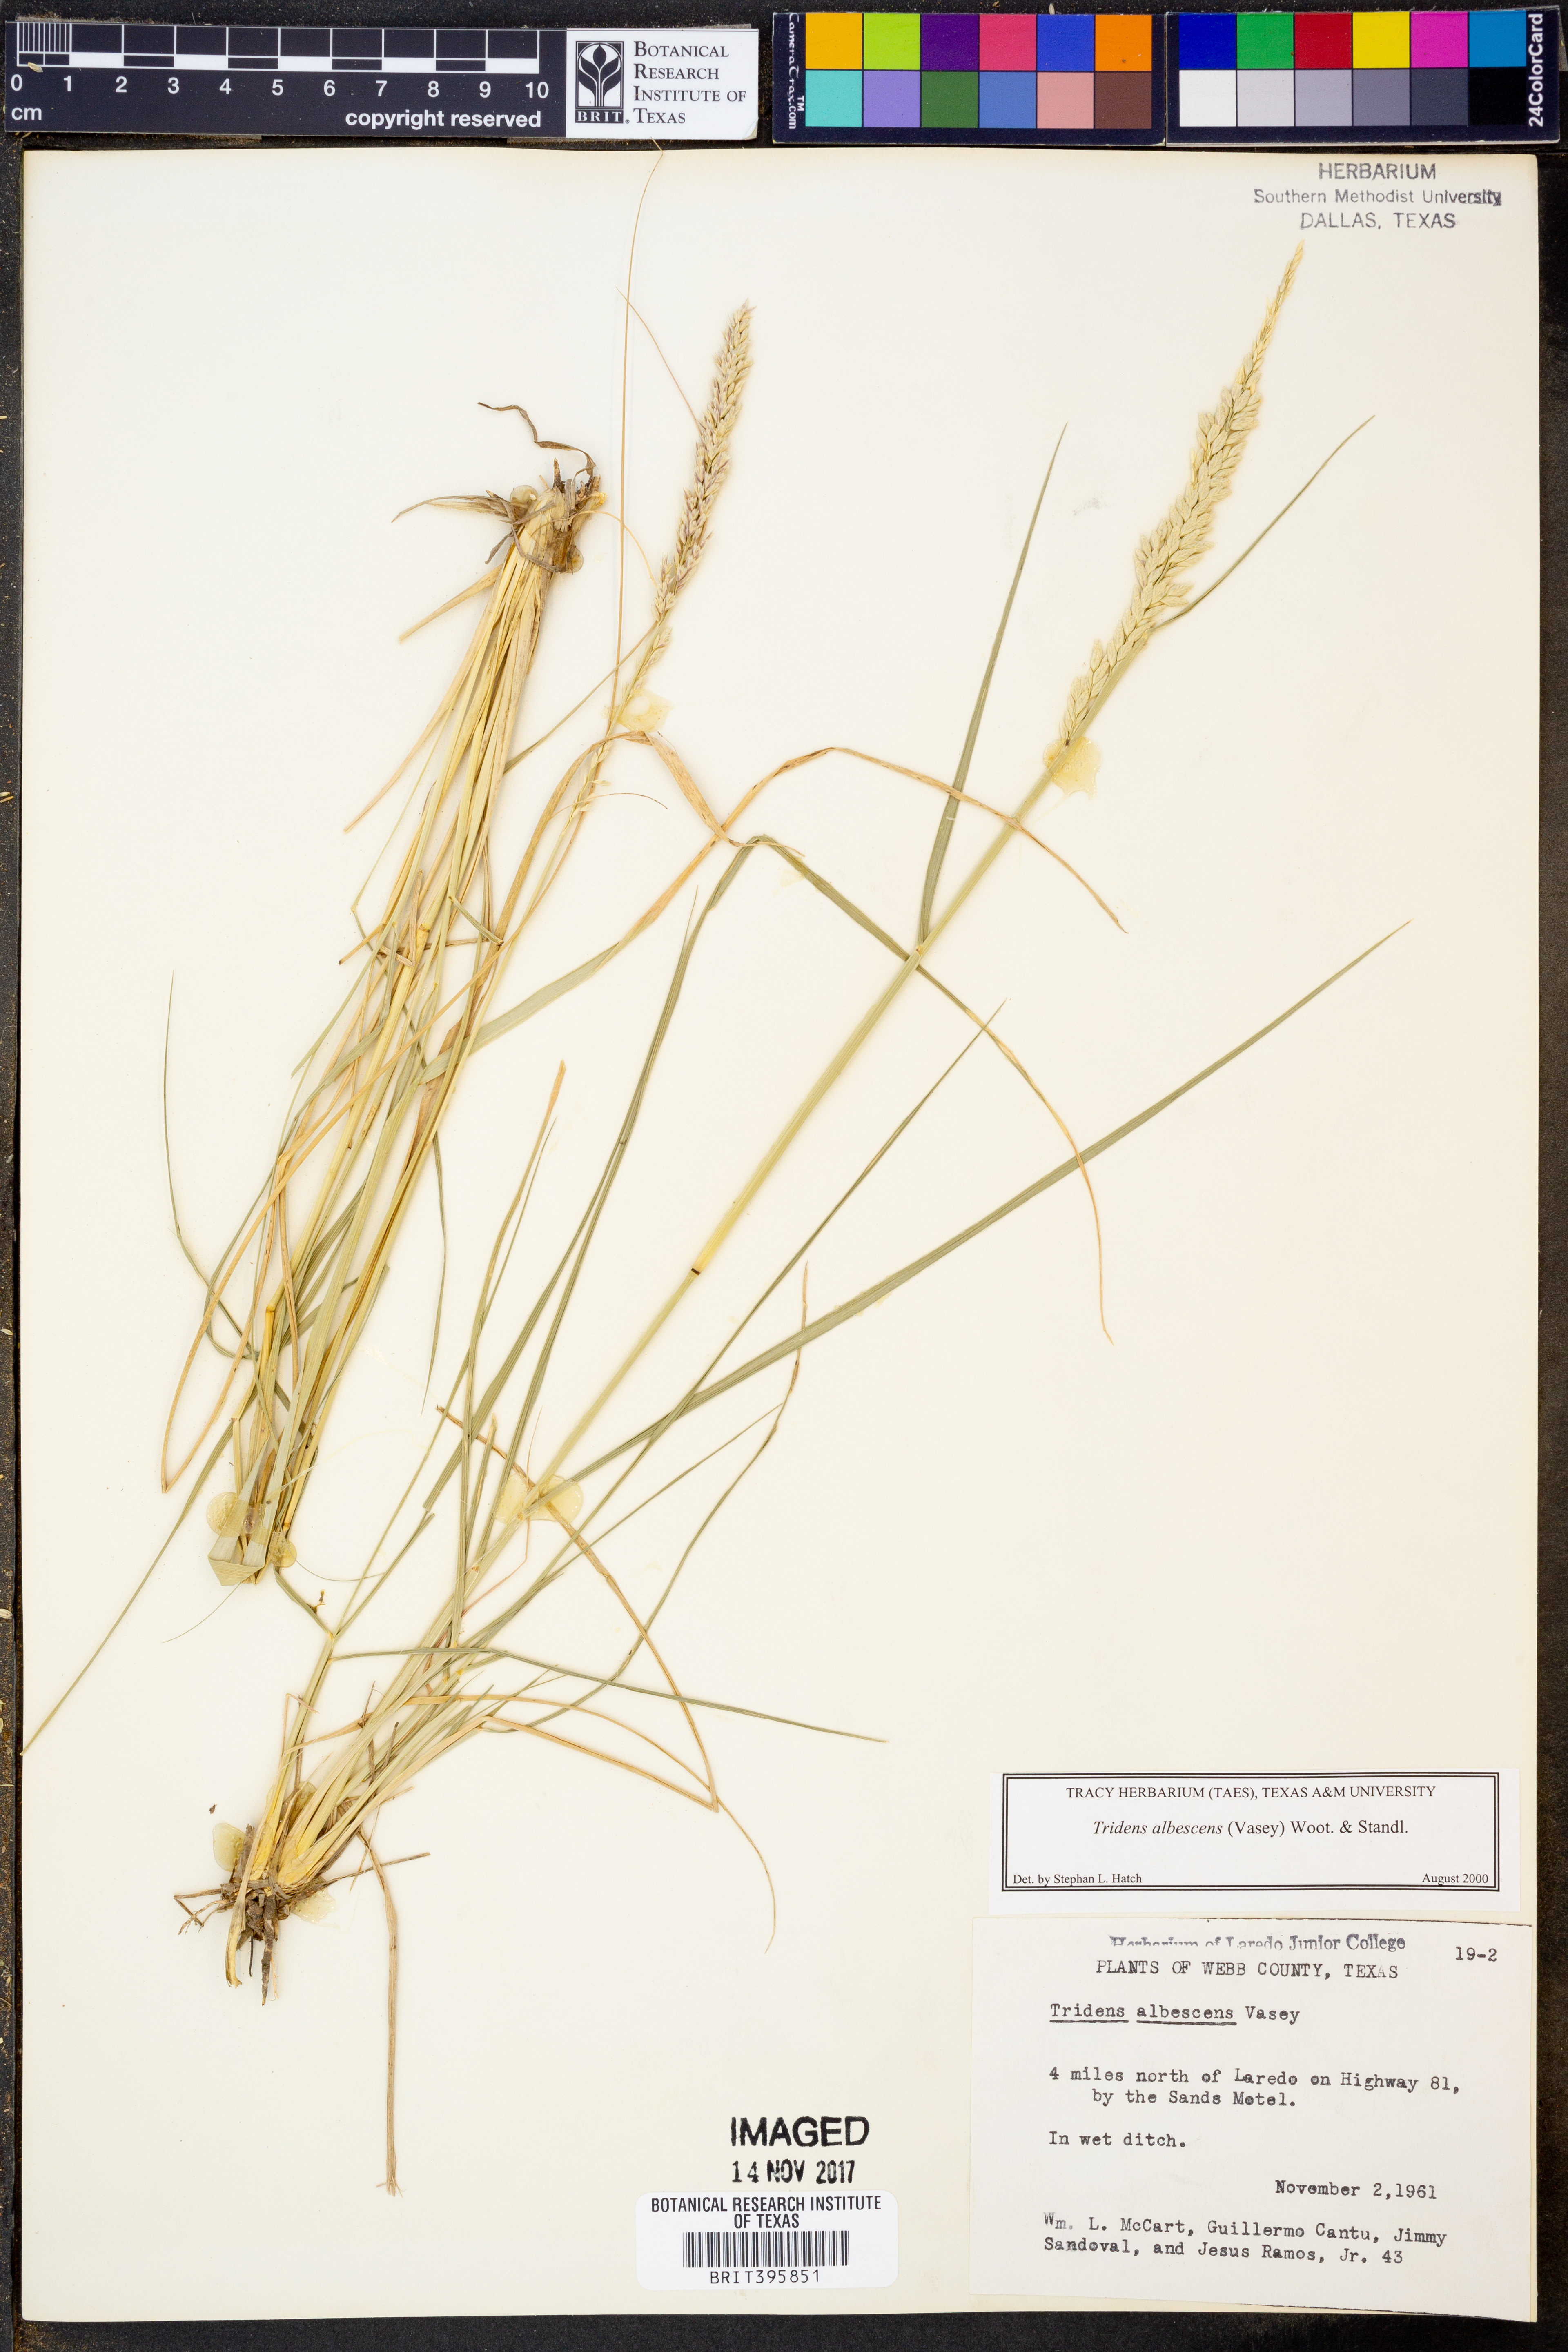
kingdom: Plantae
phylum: Tracheophyta
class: Liliopsida
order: Poales
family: Poaceae
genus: Tridens
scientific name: Tridens albescens
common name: White tridens
